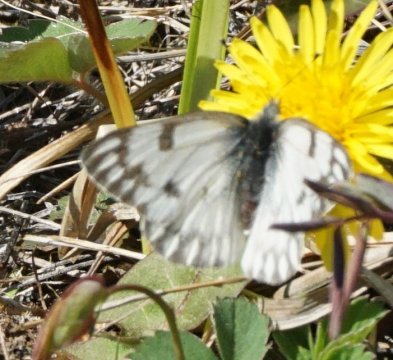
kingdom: Animalia
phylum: Arthropoda
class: Insecta
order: Lepidoptera
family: Pieridae
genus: Pontia
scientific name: Pontia occidentalis
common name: Western White
